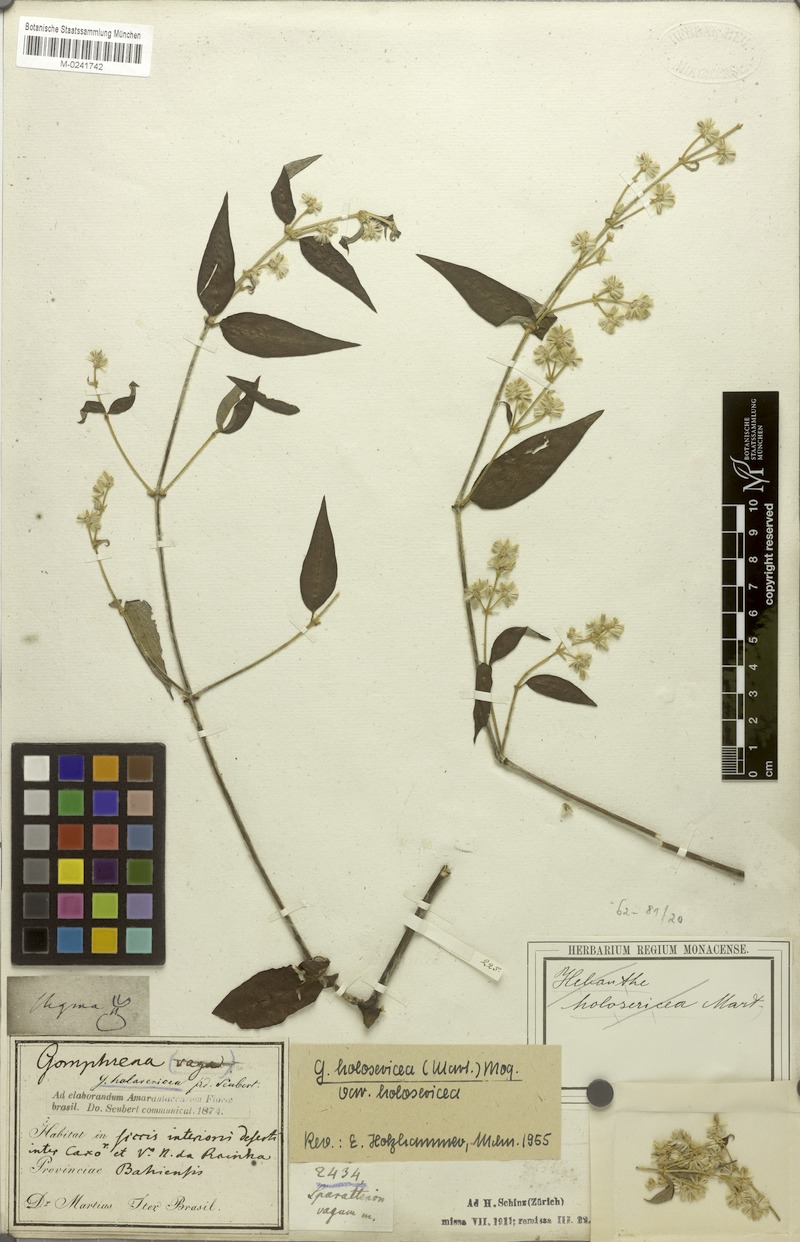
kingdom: Plantae
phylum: Tracheophyta
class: Magnoliopsida
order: Caryophyllales
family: Amaranthaceae
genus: Gomphrena
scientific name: Gomphrena vaga
